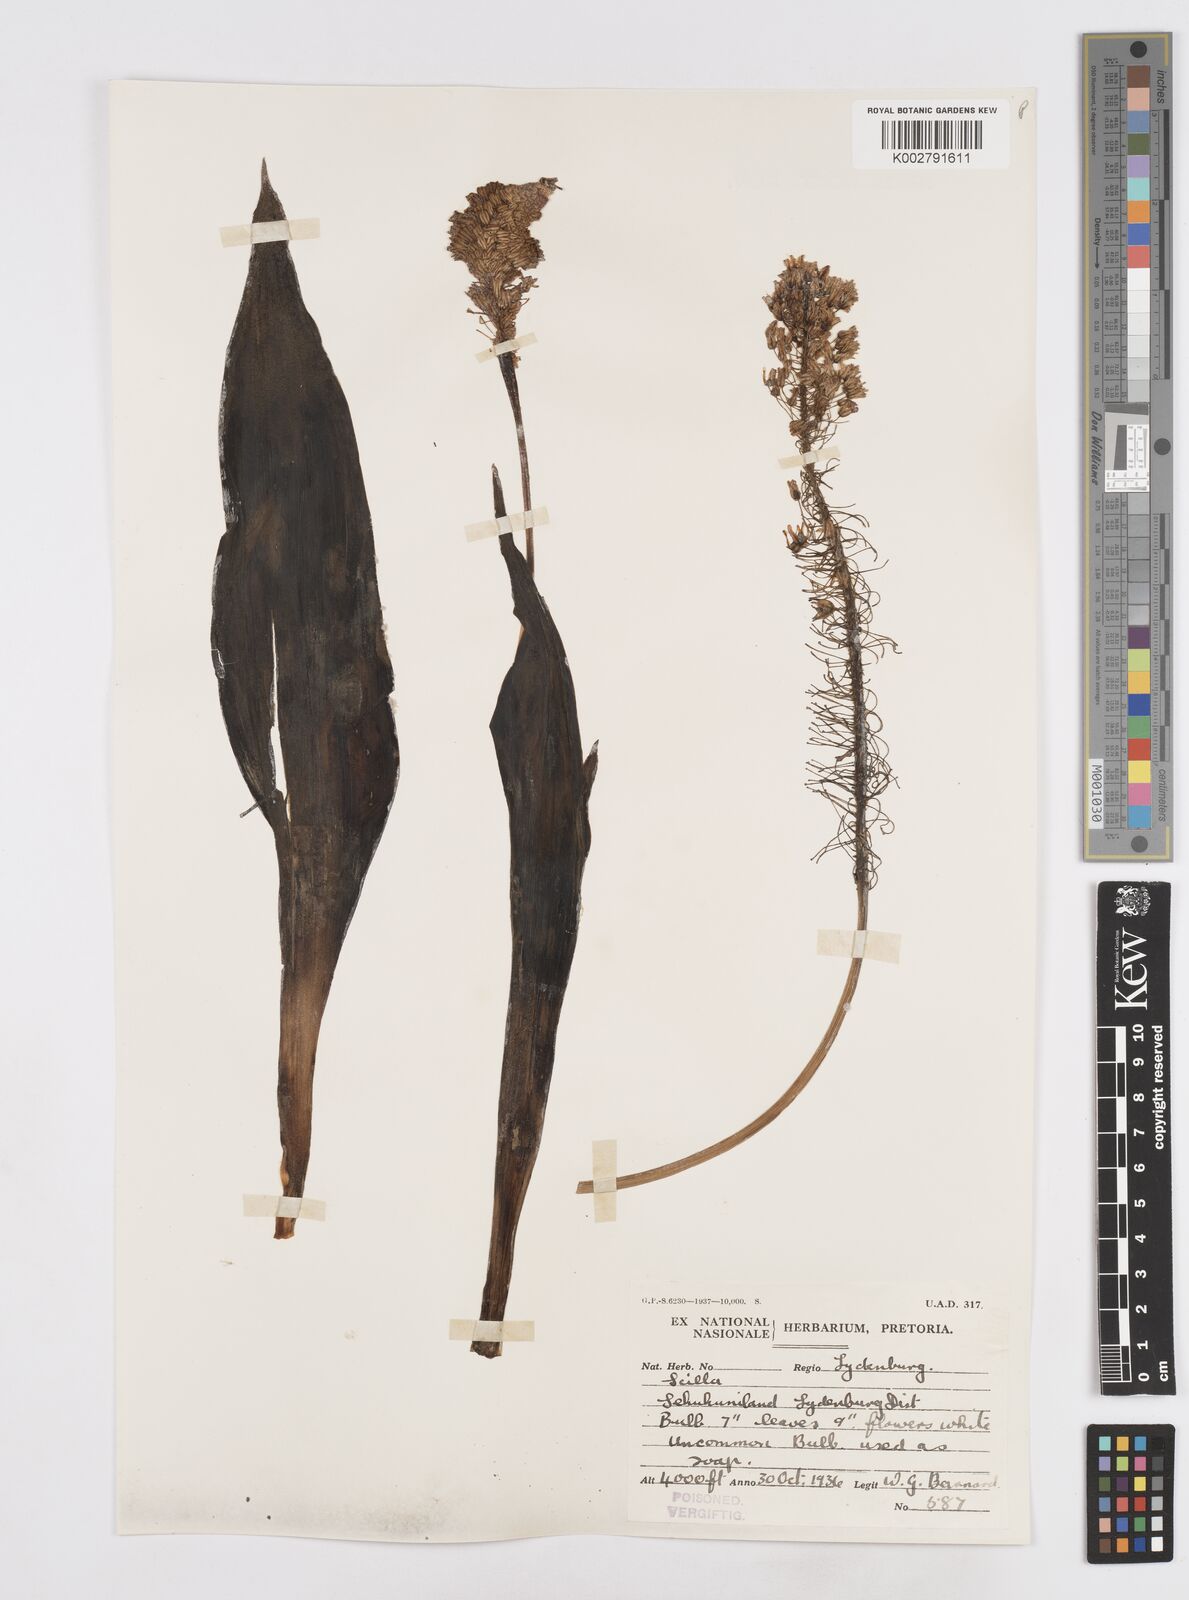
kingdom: Plantae
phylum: Tracheophyta
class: Liliopsida
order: Asparagales
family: Asparagaceae
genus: Scilla
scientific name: Scilla
